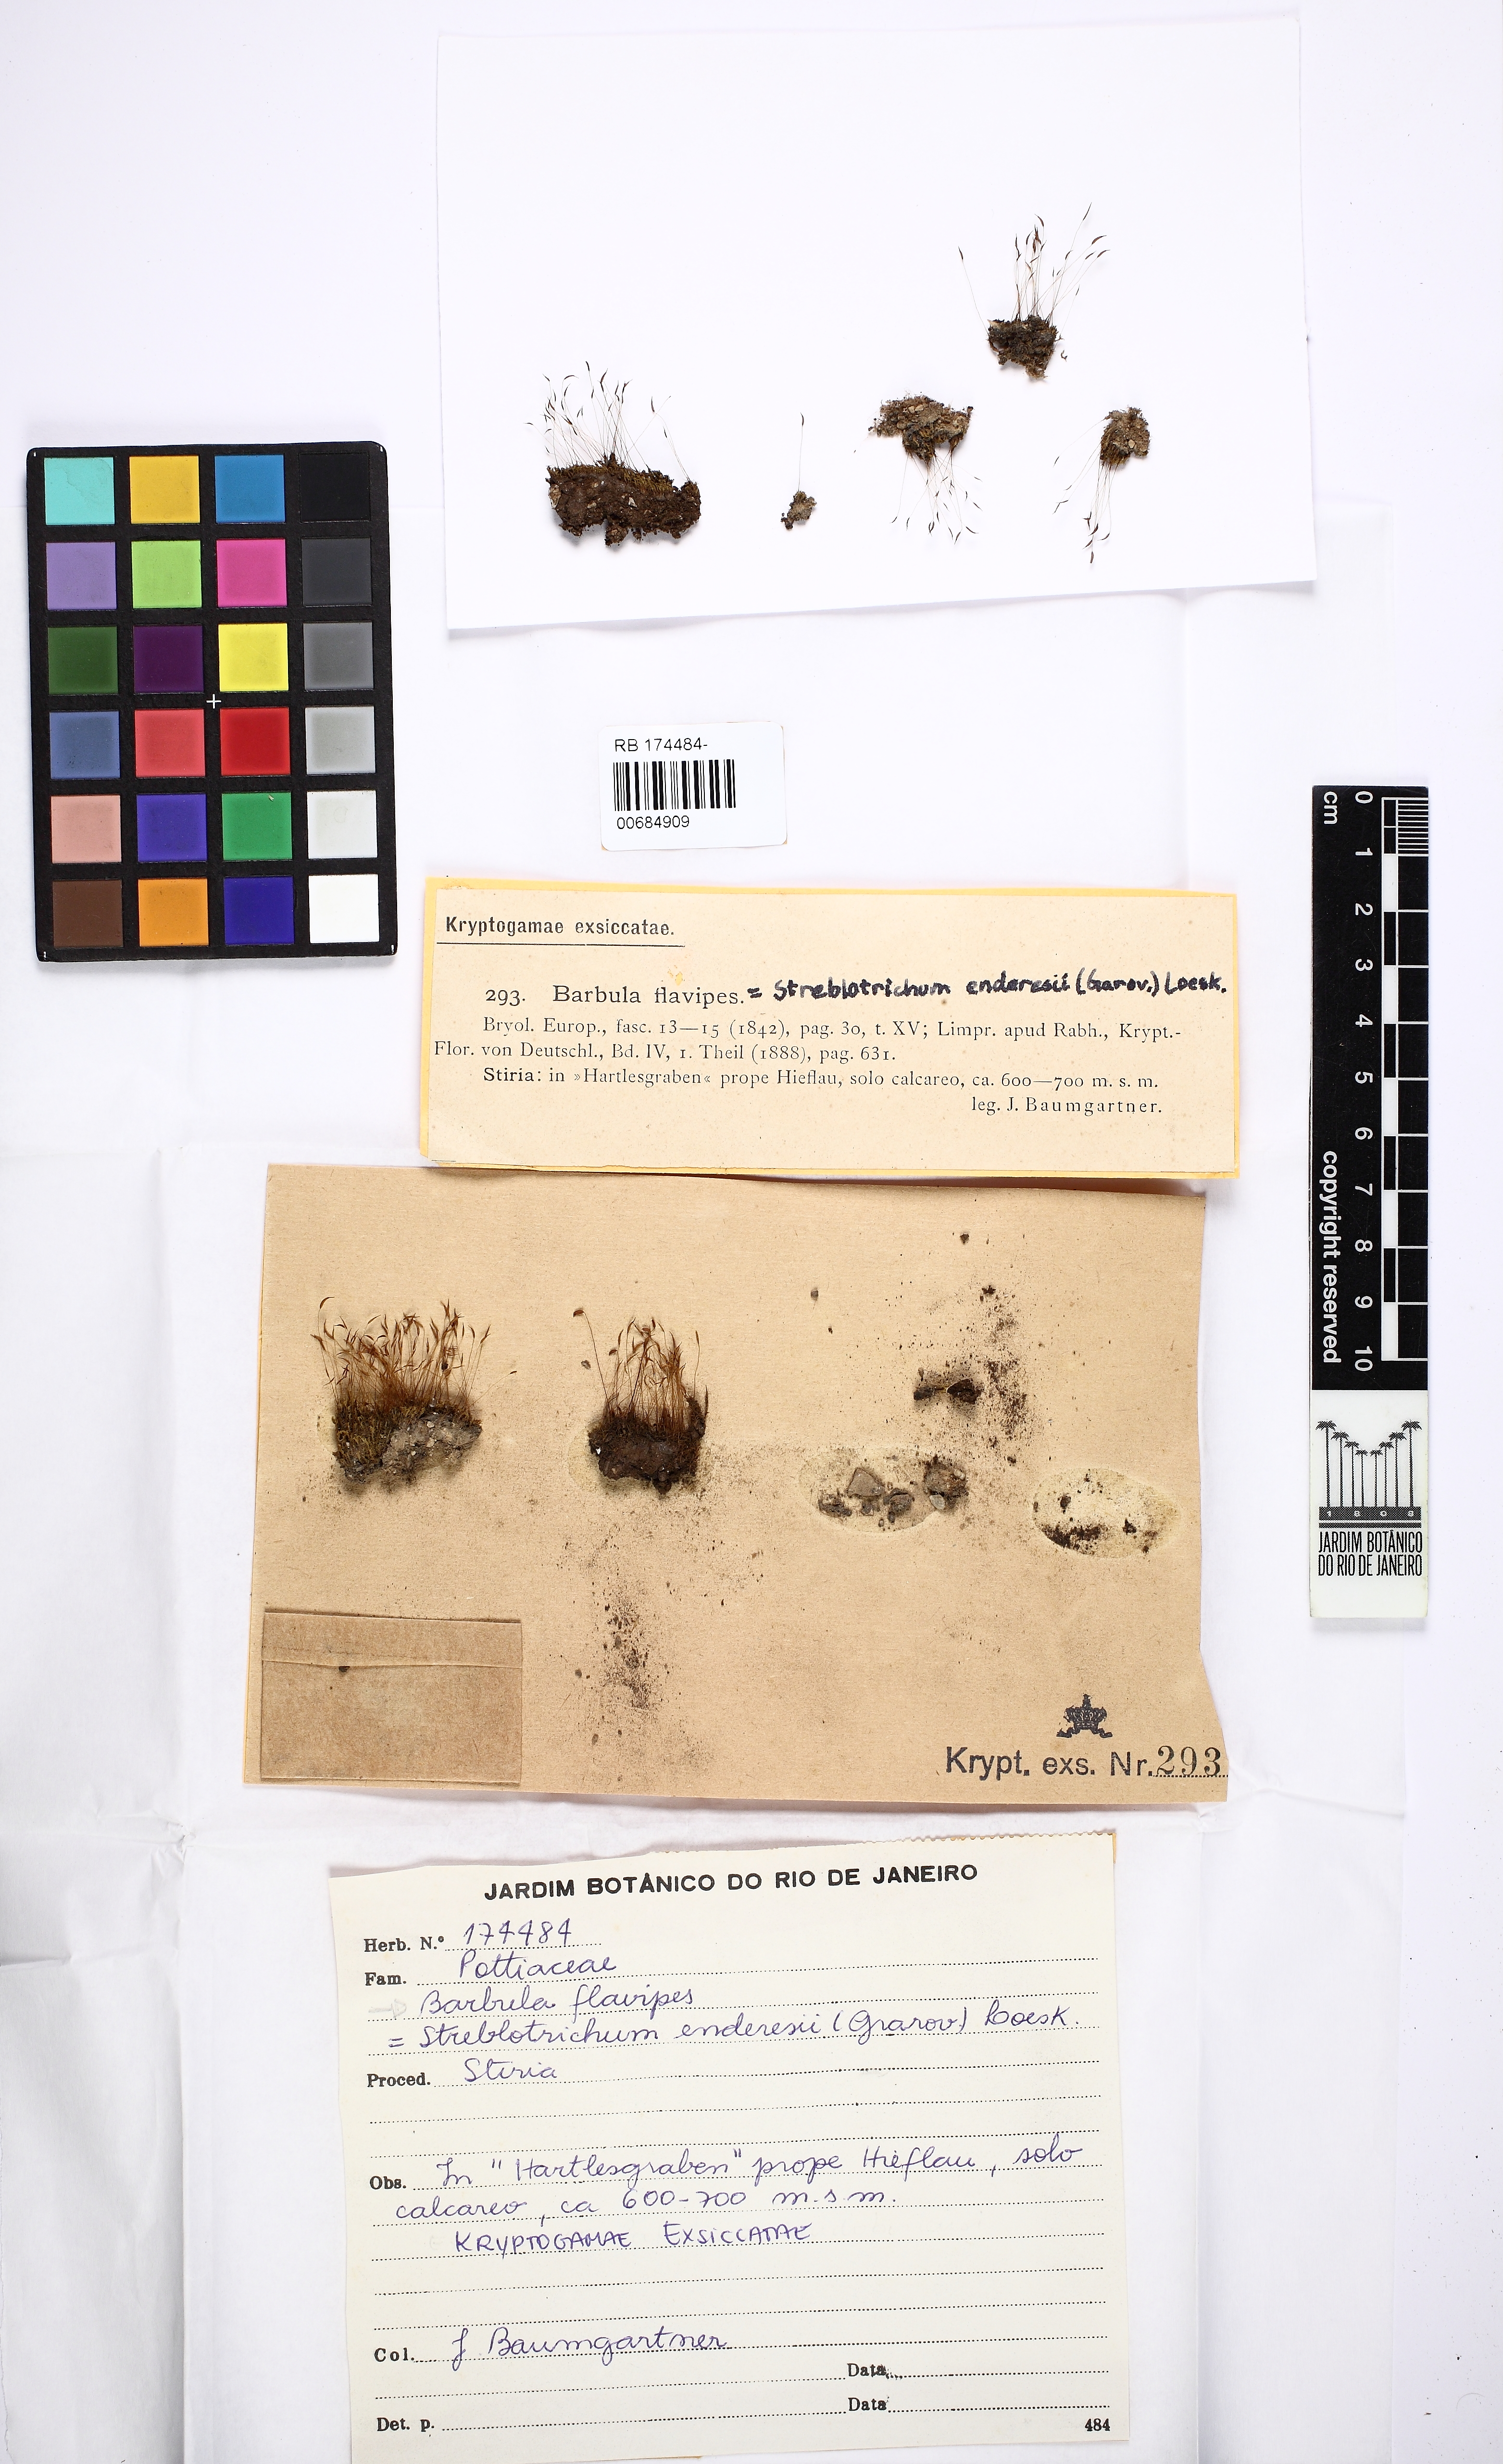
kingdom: Plantae
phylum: Bryophyta
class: Bryopsida
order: Pottiales
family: Pottiaceae
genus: Streblotrichum
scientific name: Streblotrichum enderesii
